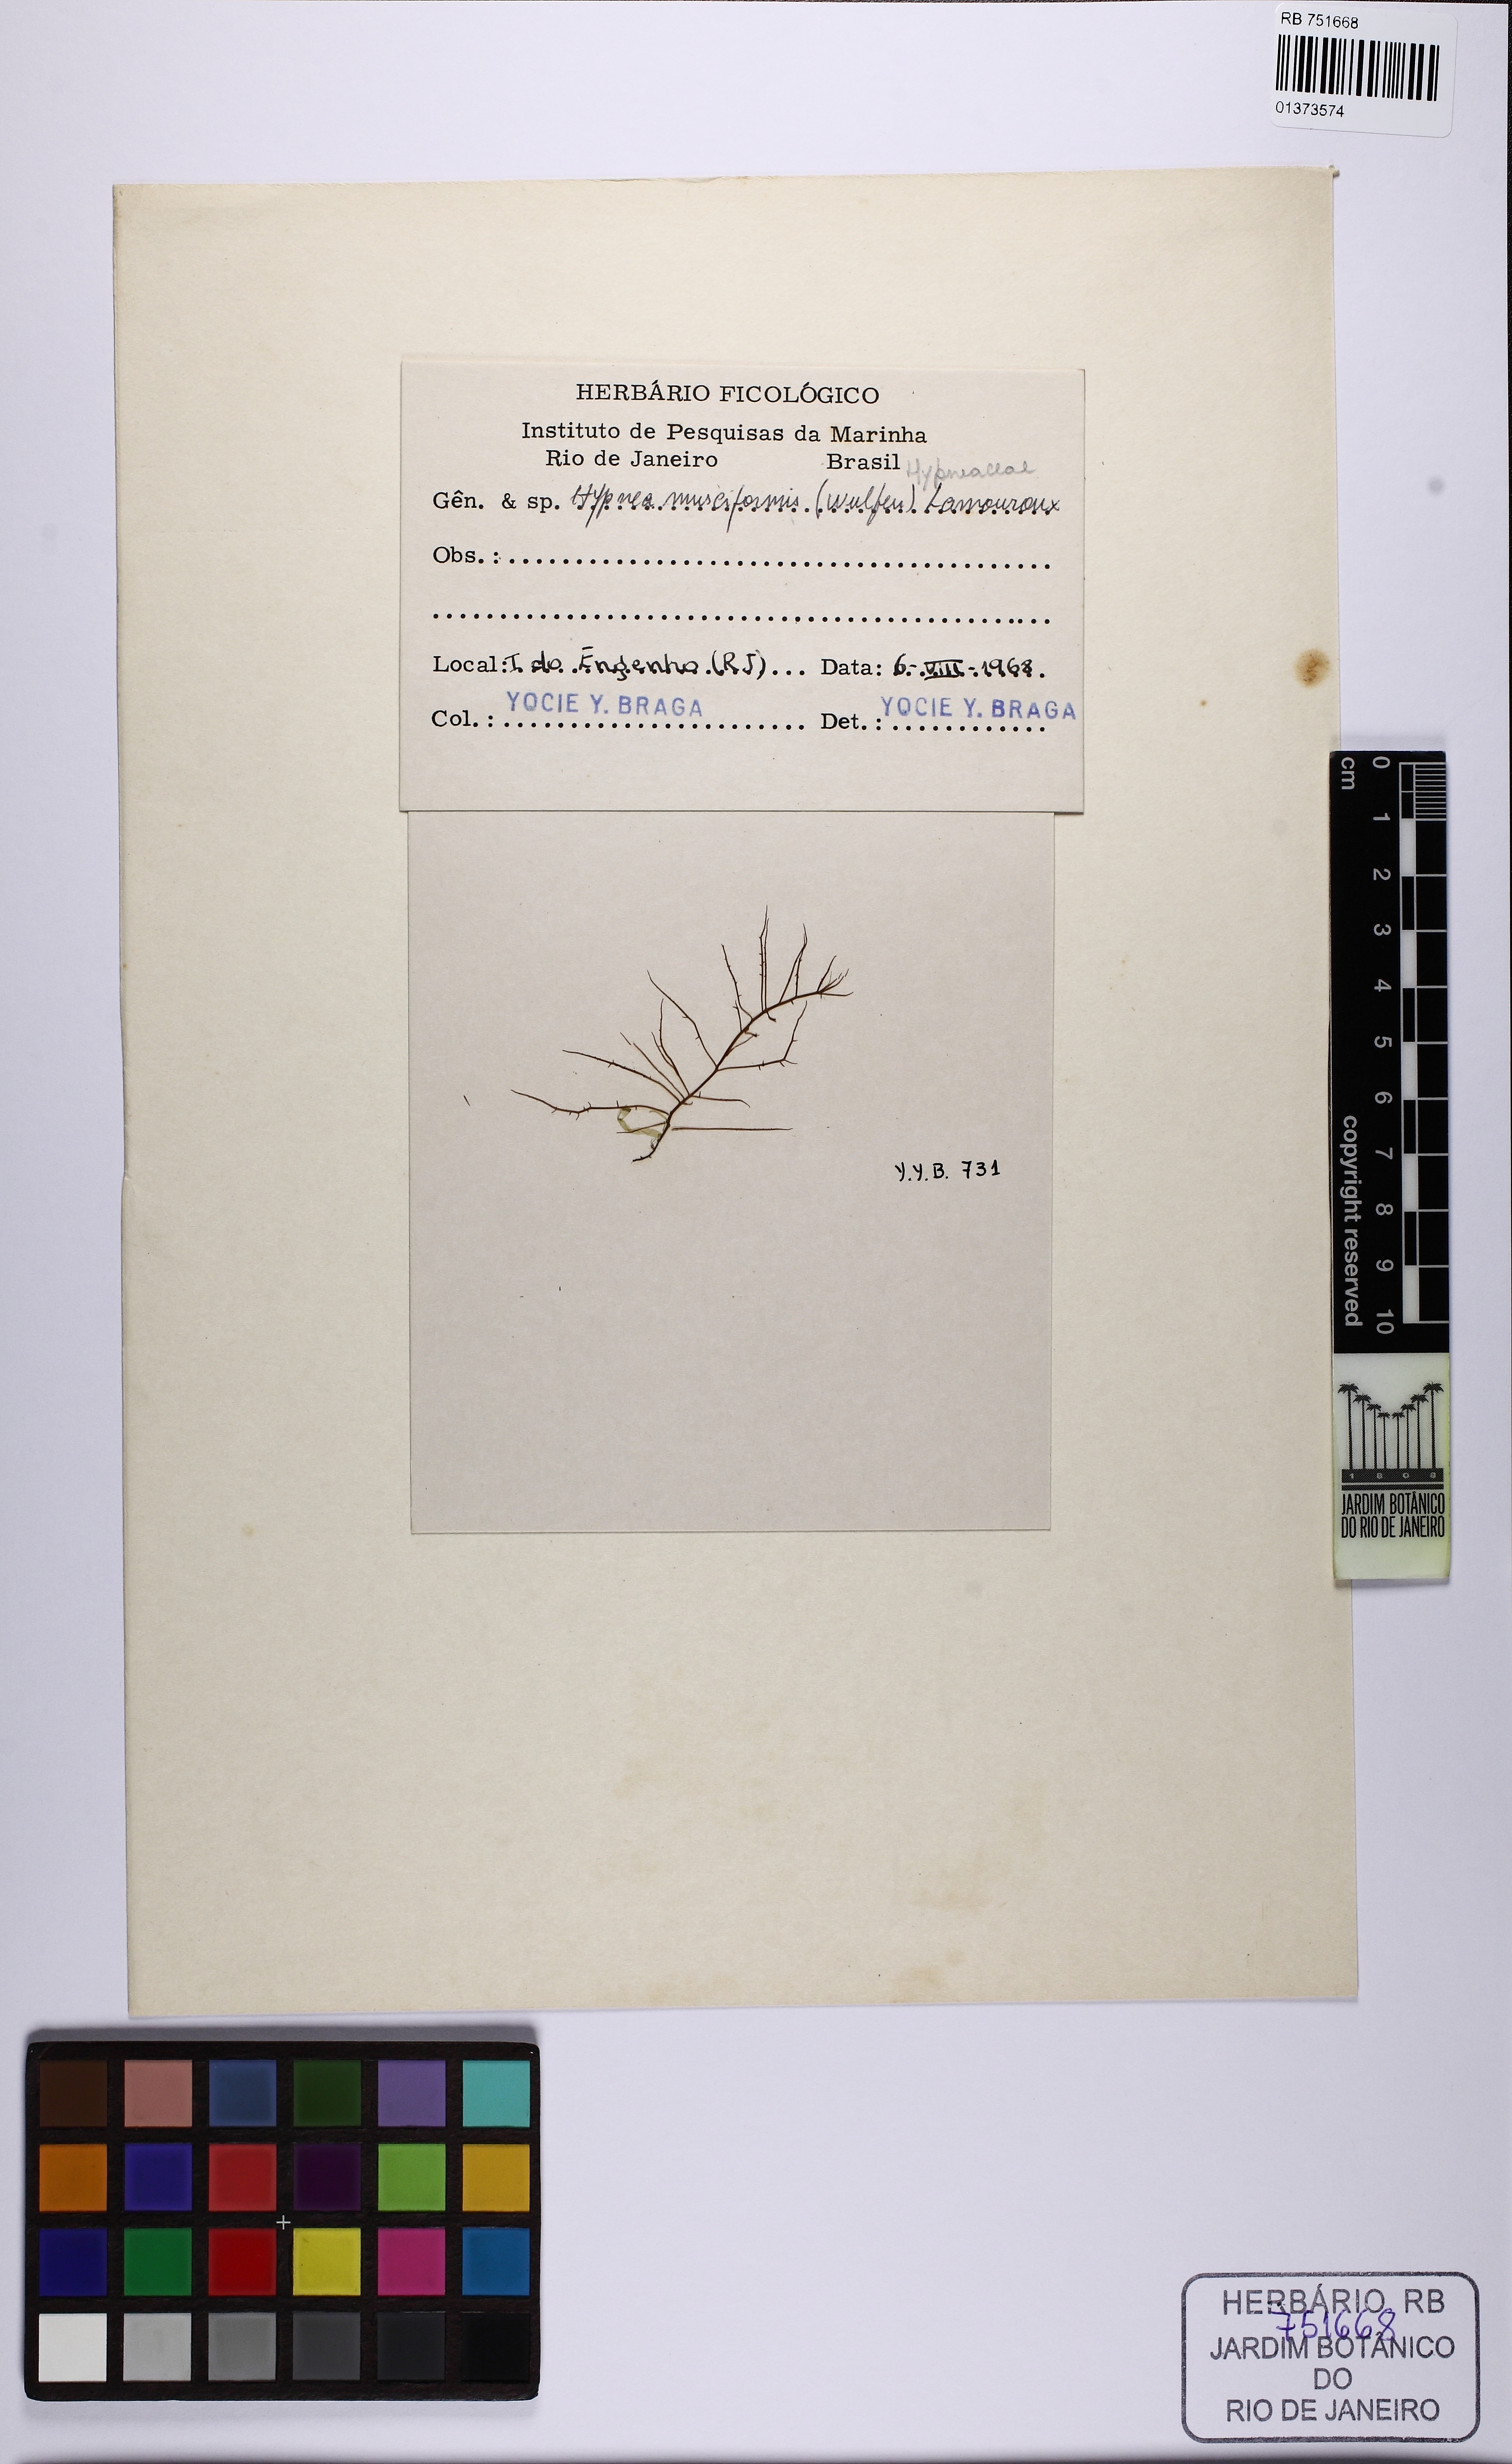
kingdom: Plantae
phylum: Rhodophyta
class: Florideophyceae
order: Gigartinales
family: Cystocloniaceae
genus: Hypnea
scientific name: Hypnea musciformis
